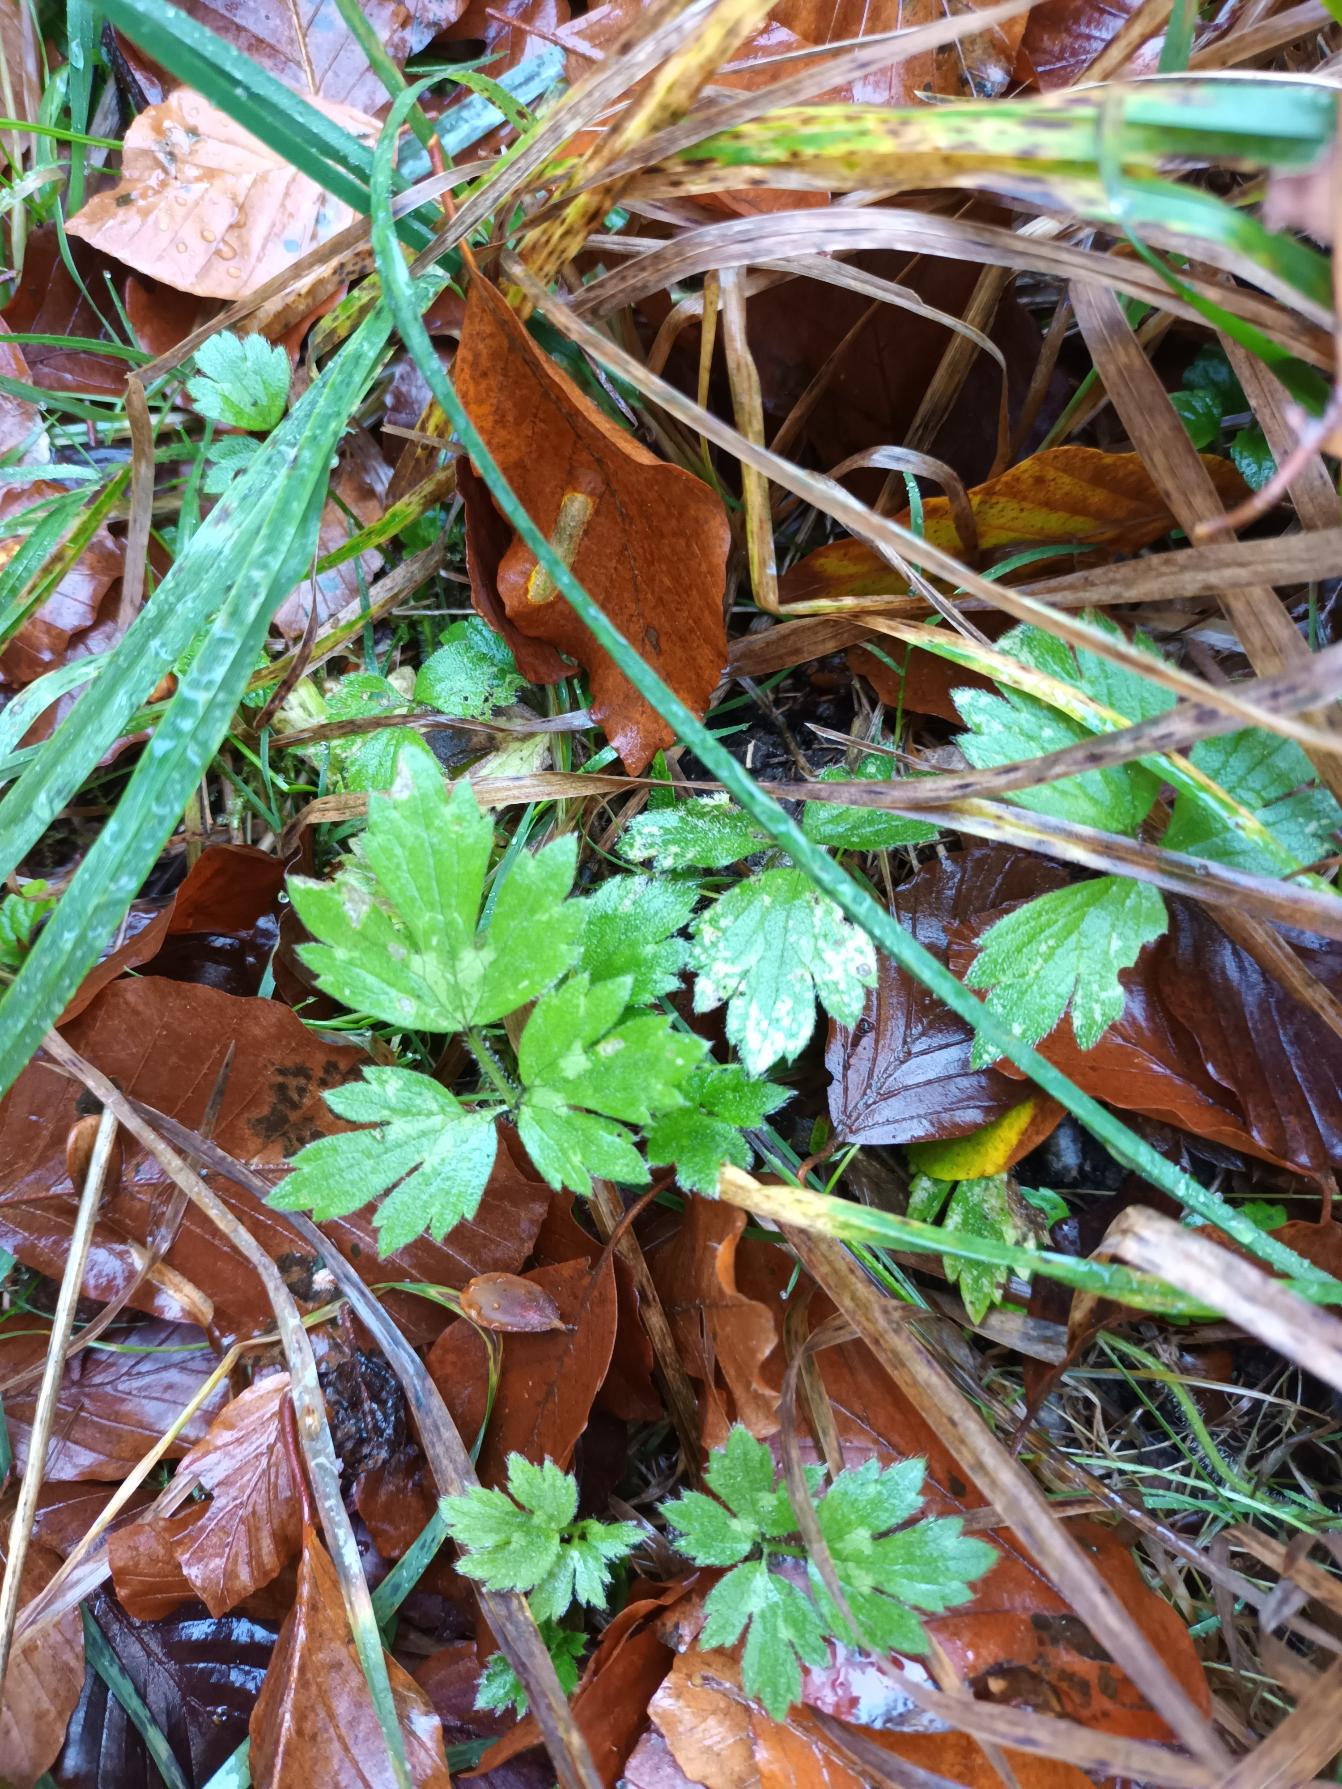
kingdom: Plantae
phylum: Tracheophyta
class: Magnoliopsida
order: Ranunculales
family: Ranunculaceae
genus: Ranunculus
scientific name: Ranunculus repens
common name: Lav ranunkel
